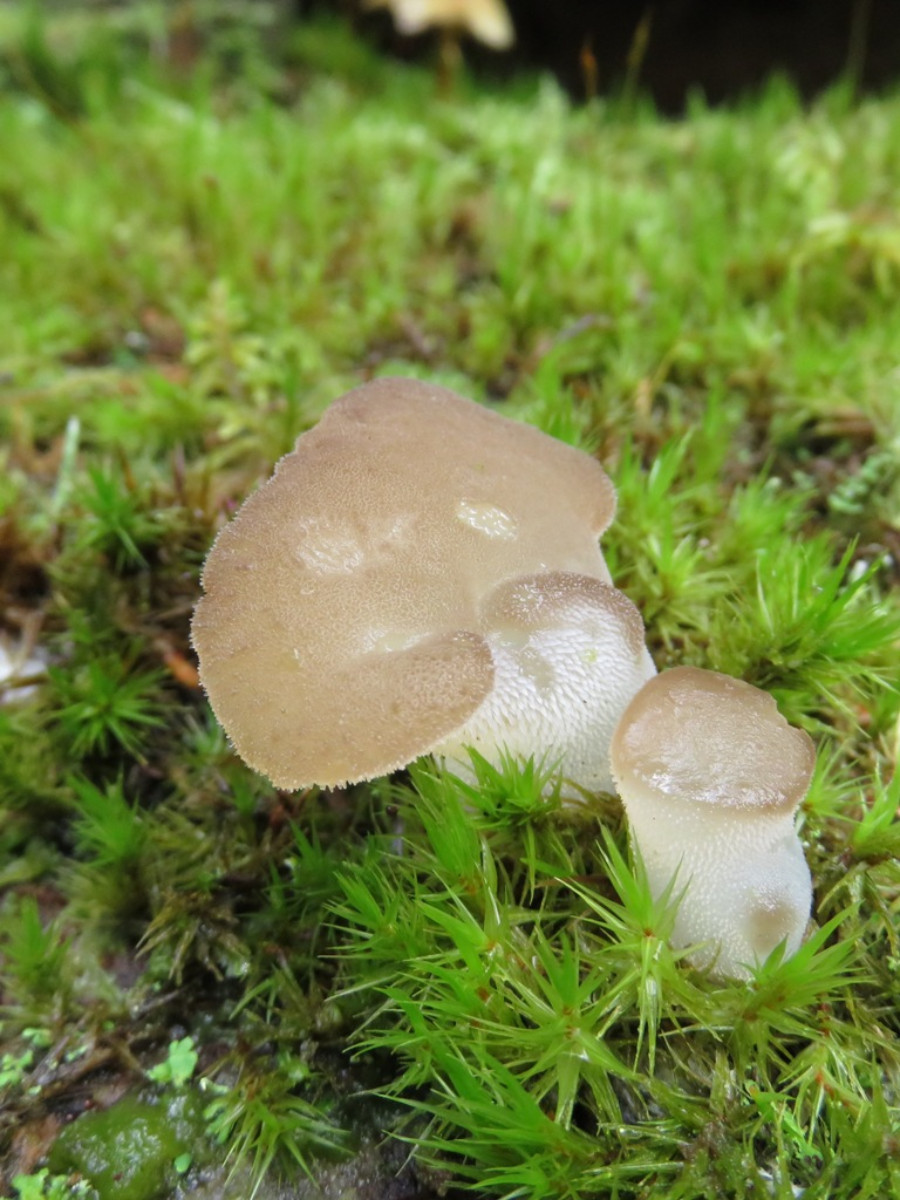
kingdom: Fungi
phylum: Basidiomycota
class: Agaricomycetes
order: Auriculariales
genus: Pseudohydnum
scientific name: Pseudohydnum gelatinosum
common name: bævretand
